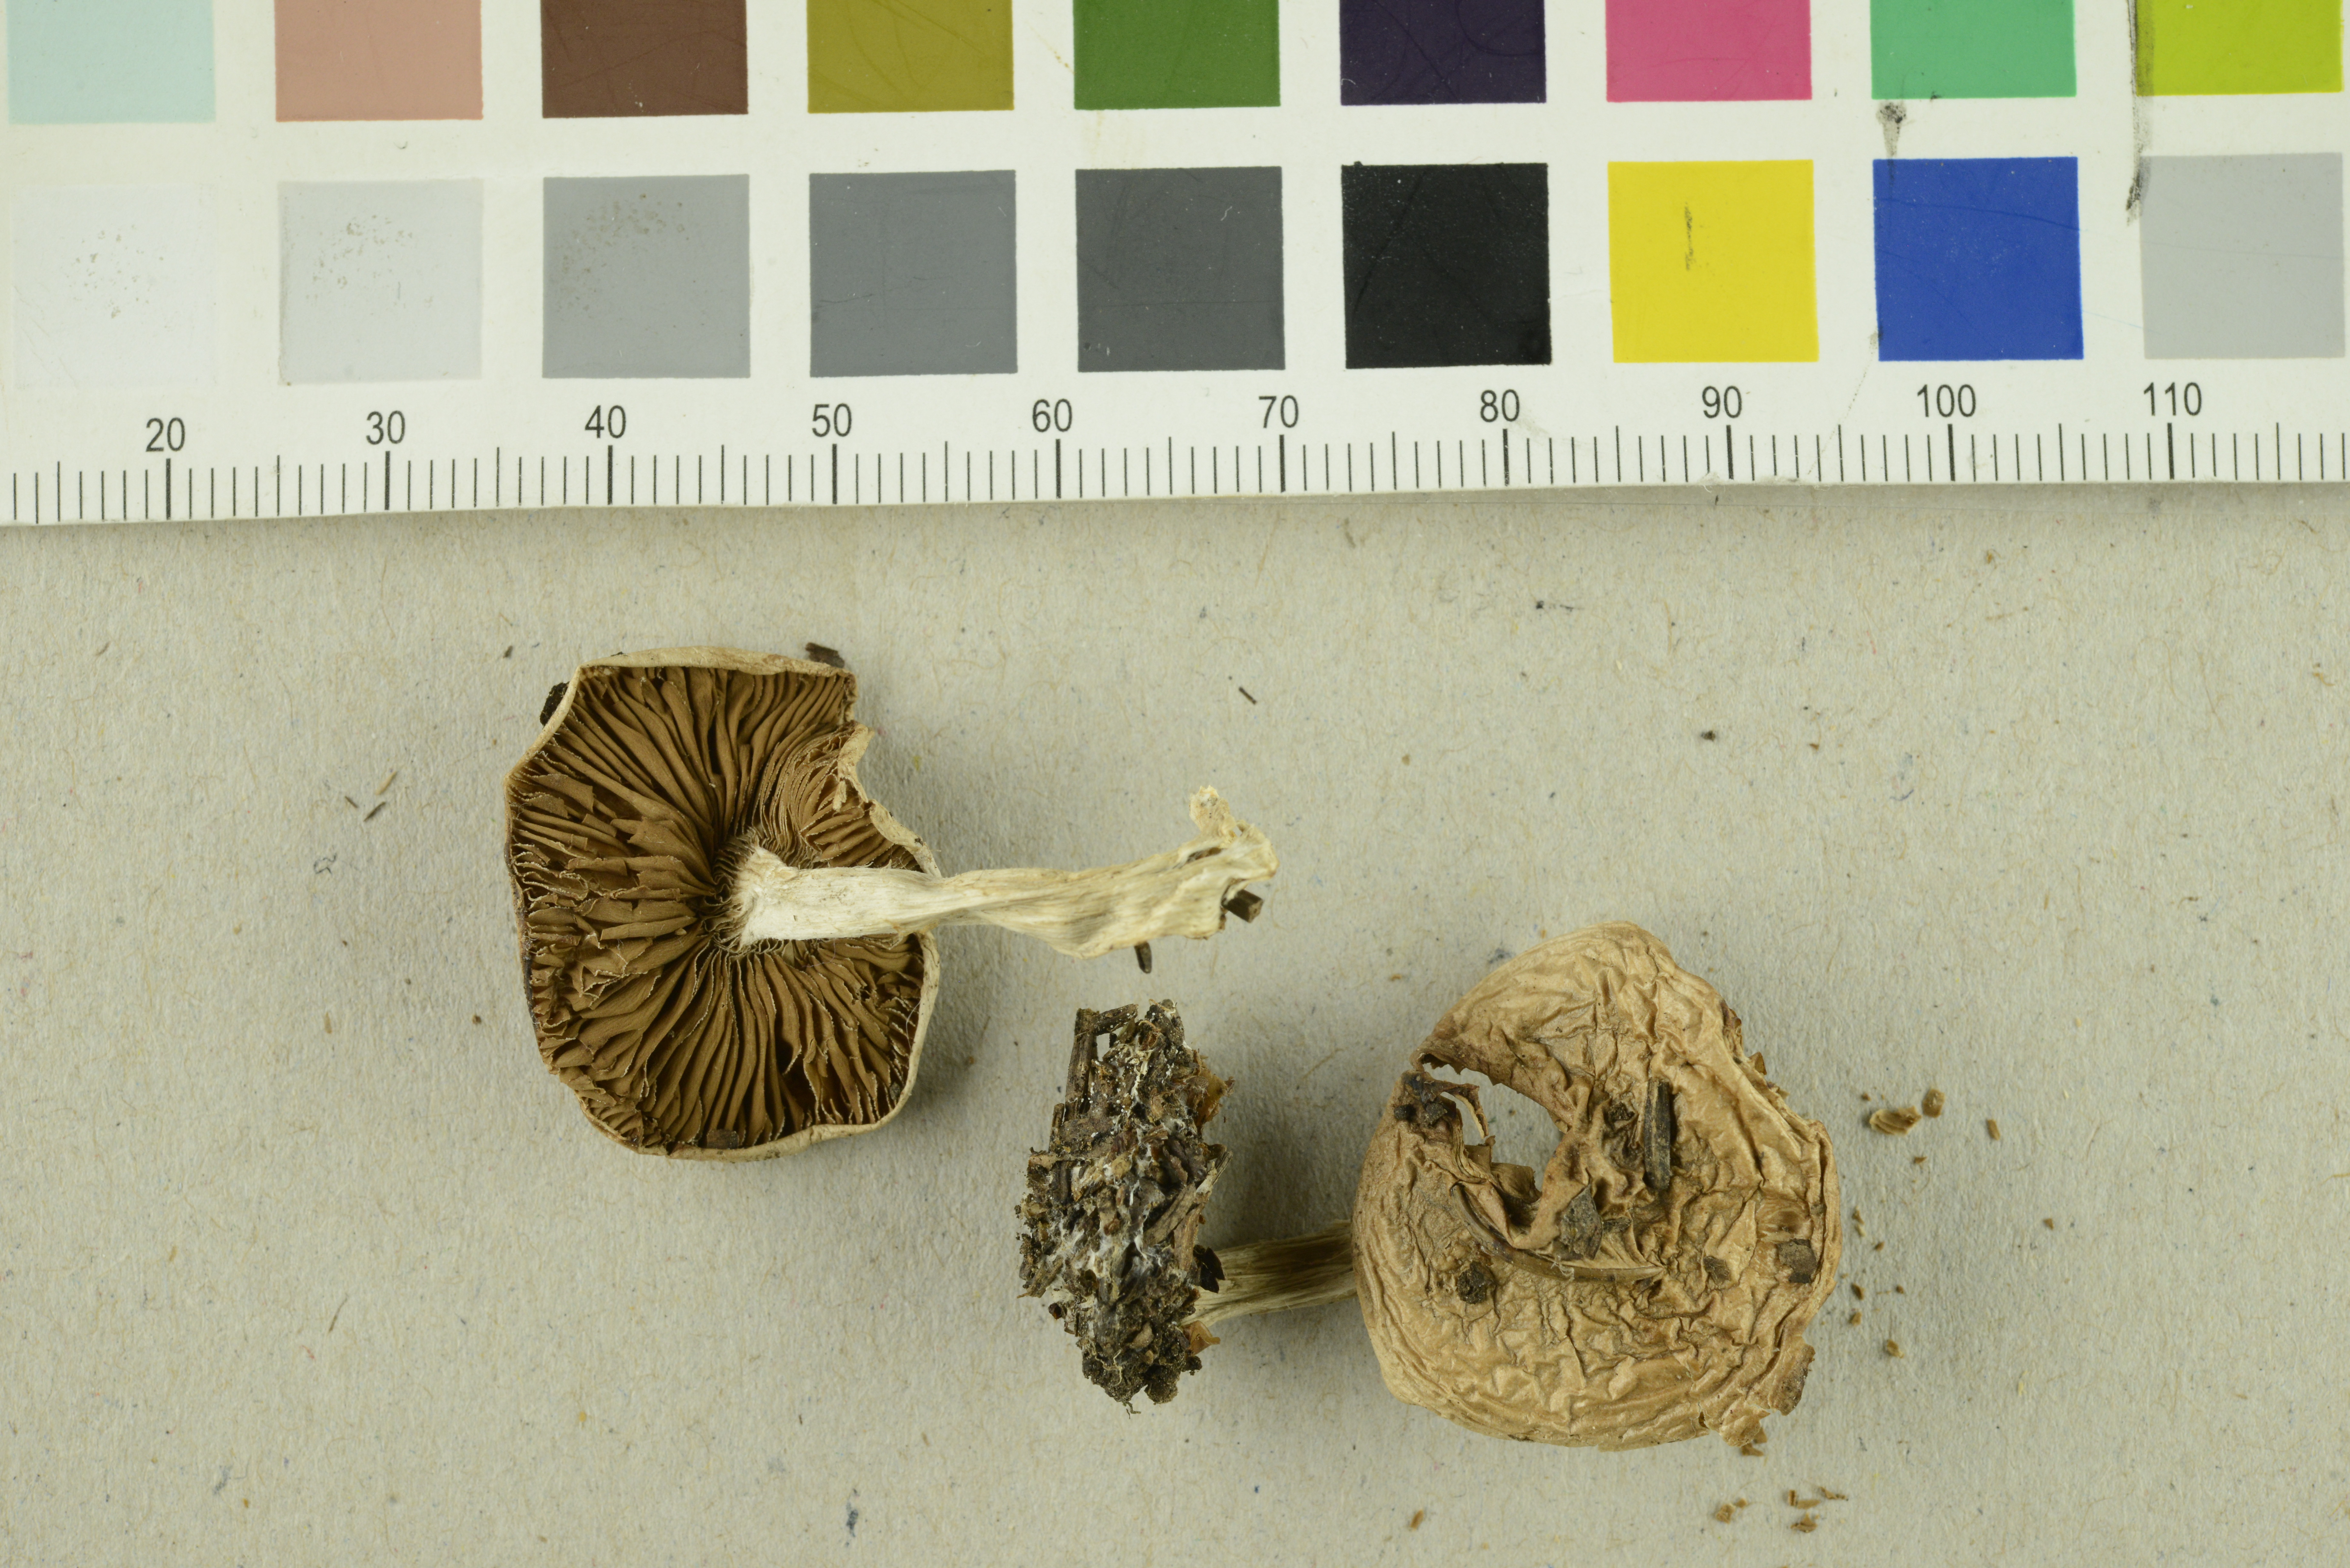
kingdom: Fungi
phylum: Basidiomycota
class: Agaricomycetes
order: Agaricales
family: Hymenogastraceae
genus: Hebeloma
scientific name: Hebeloma
